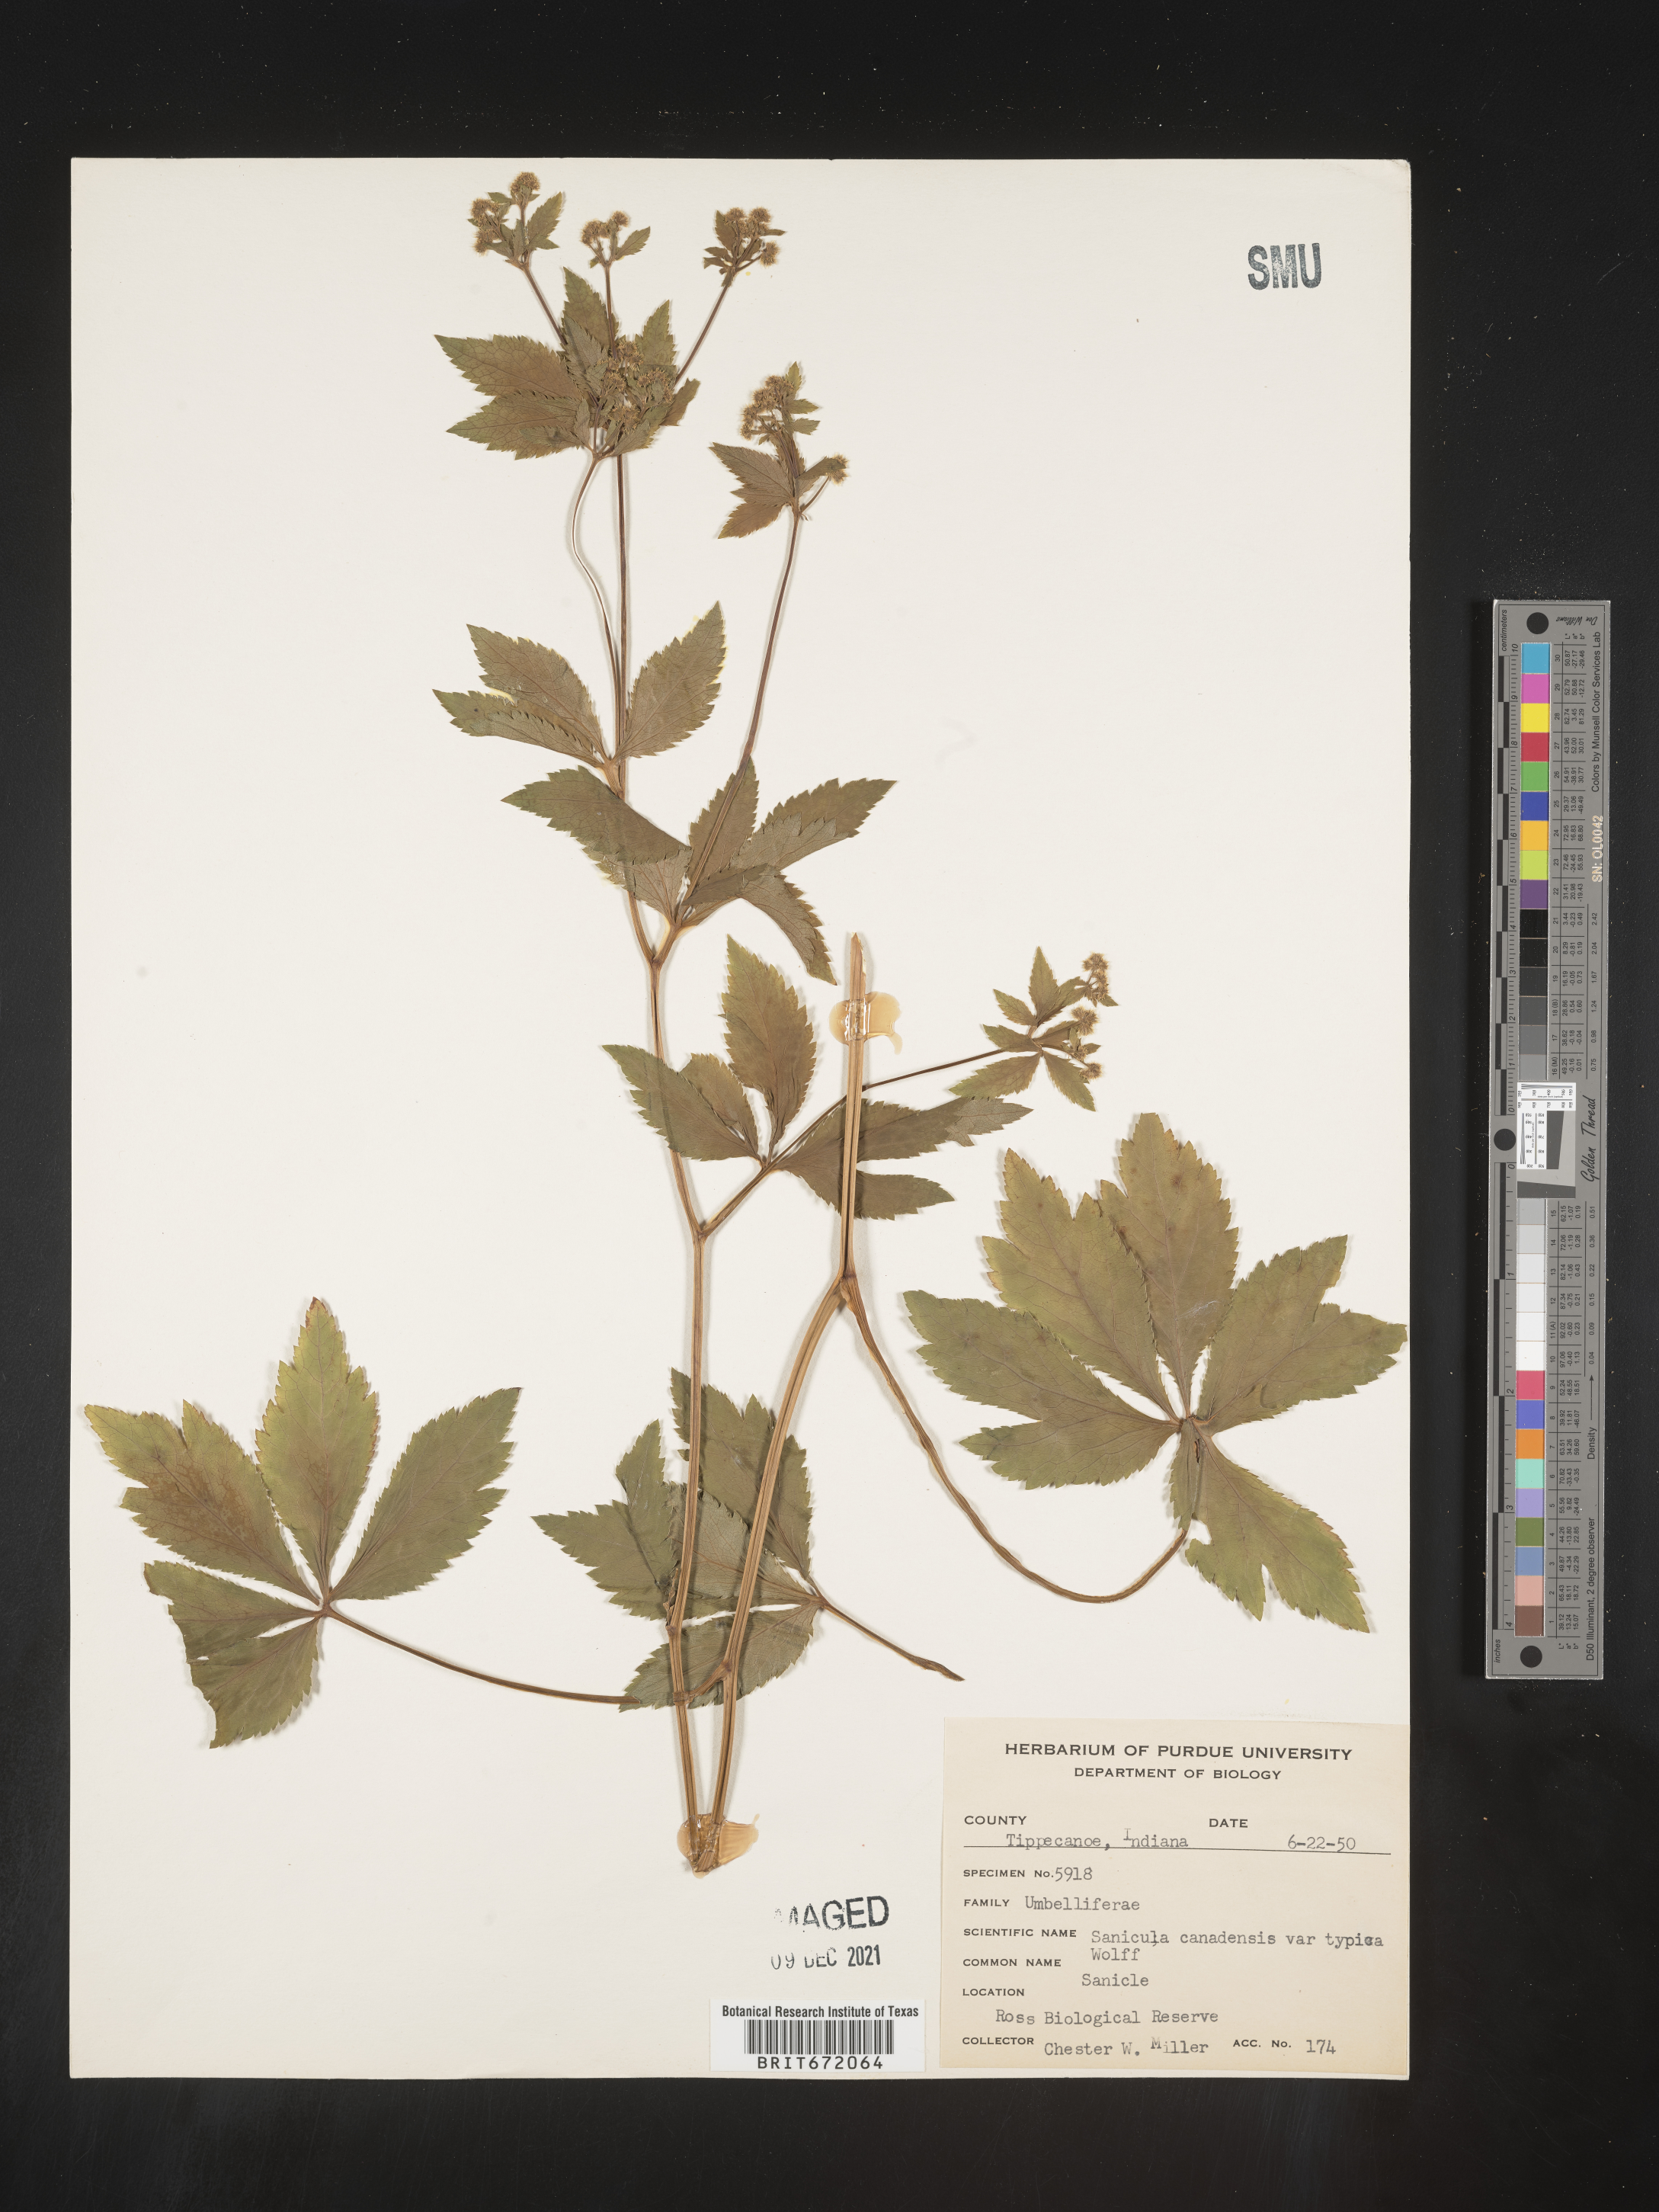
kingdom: Plantae
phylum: Tracheophyta
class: Magnoliopsida
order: Apiales
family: Apiaceae
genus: Sanicula
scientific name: Sanicula canadensis
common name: Canada sanicle
